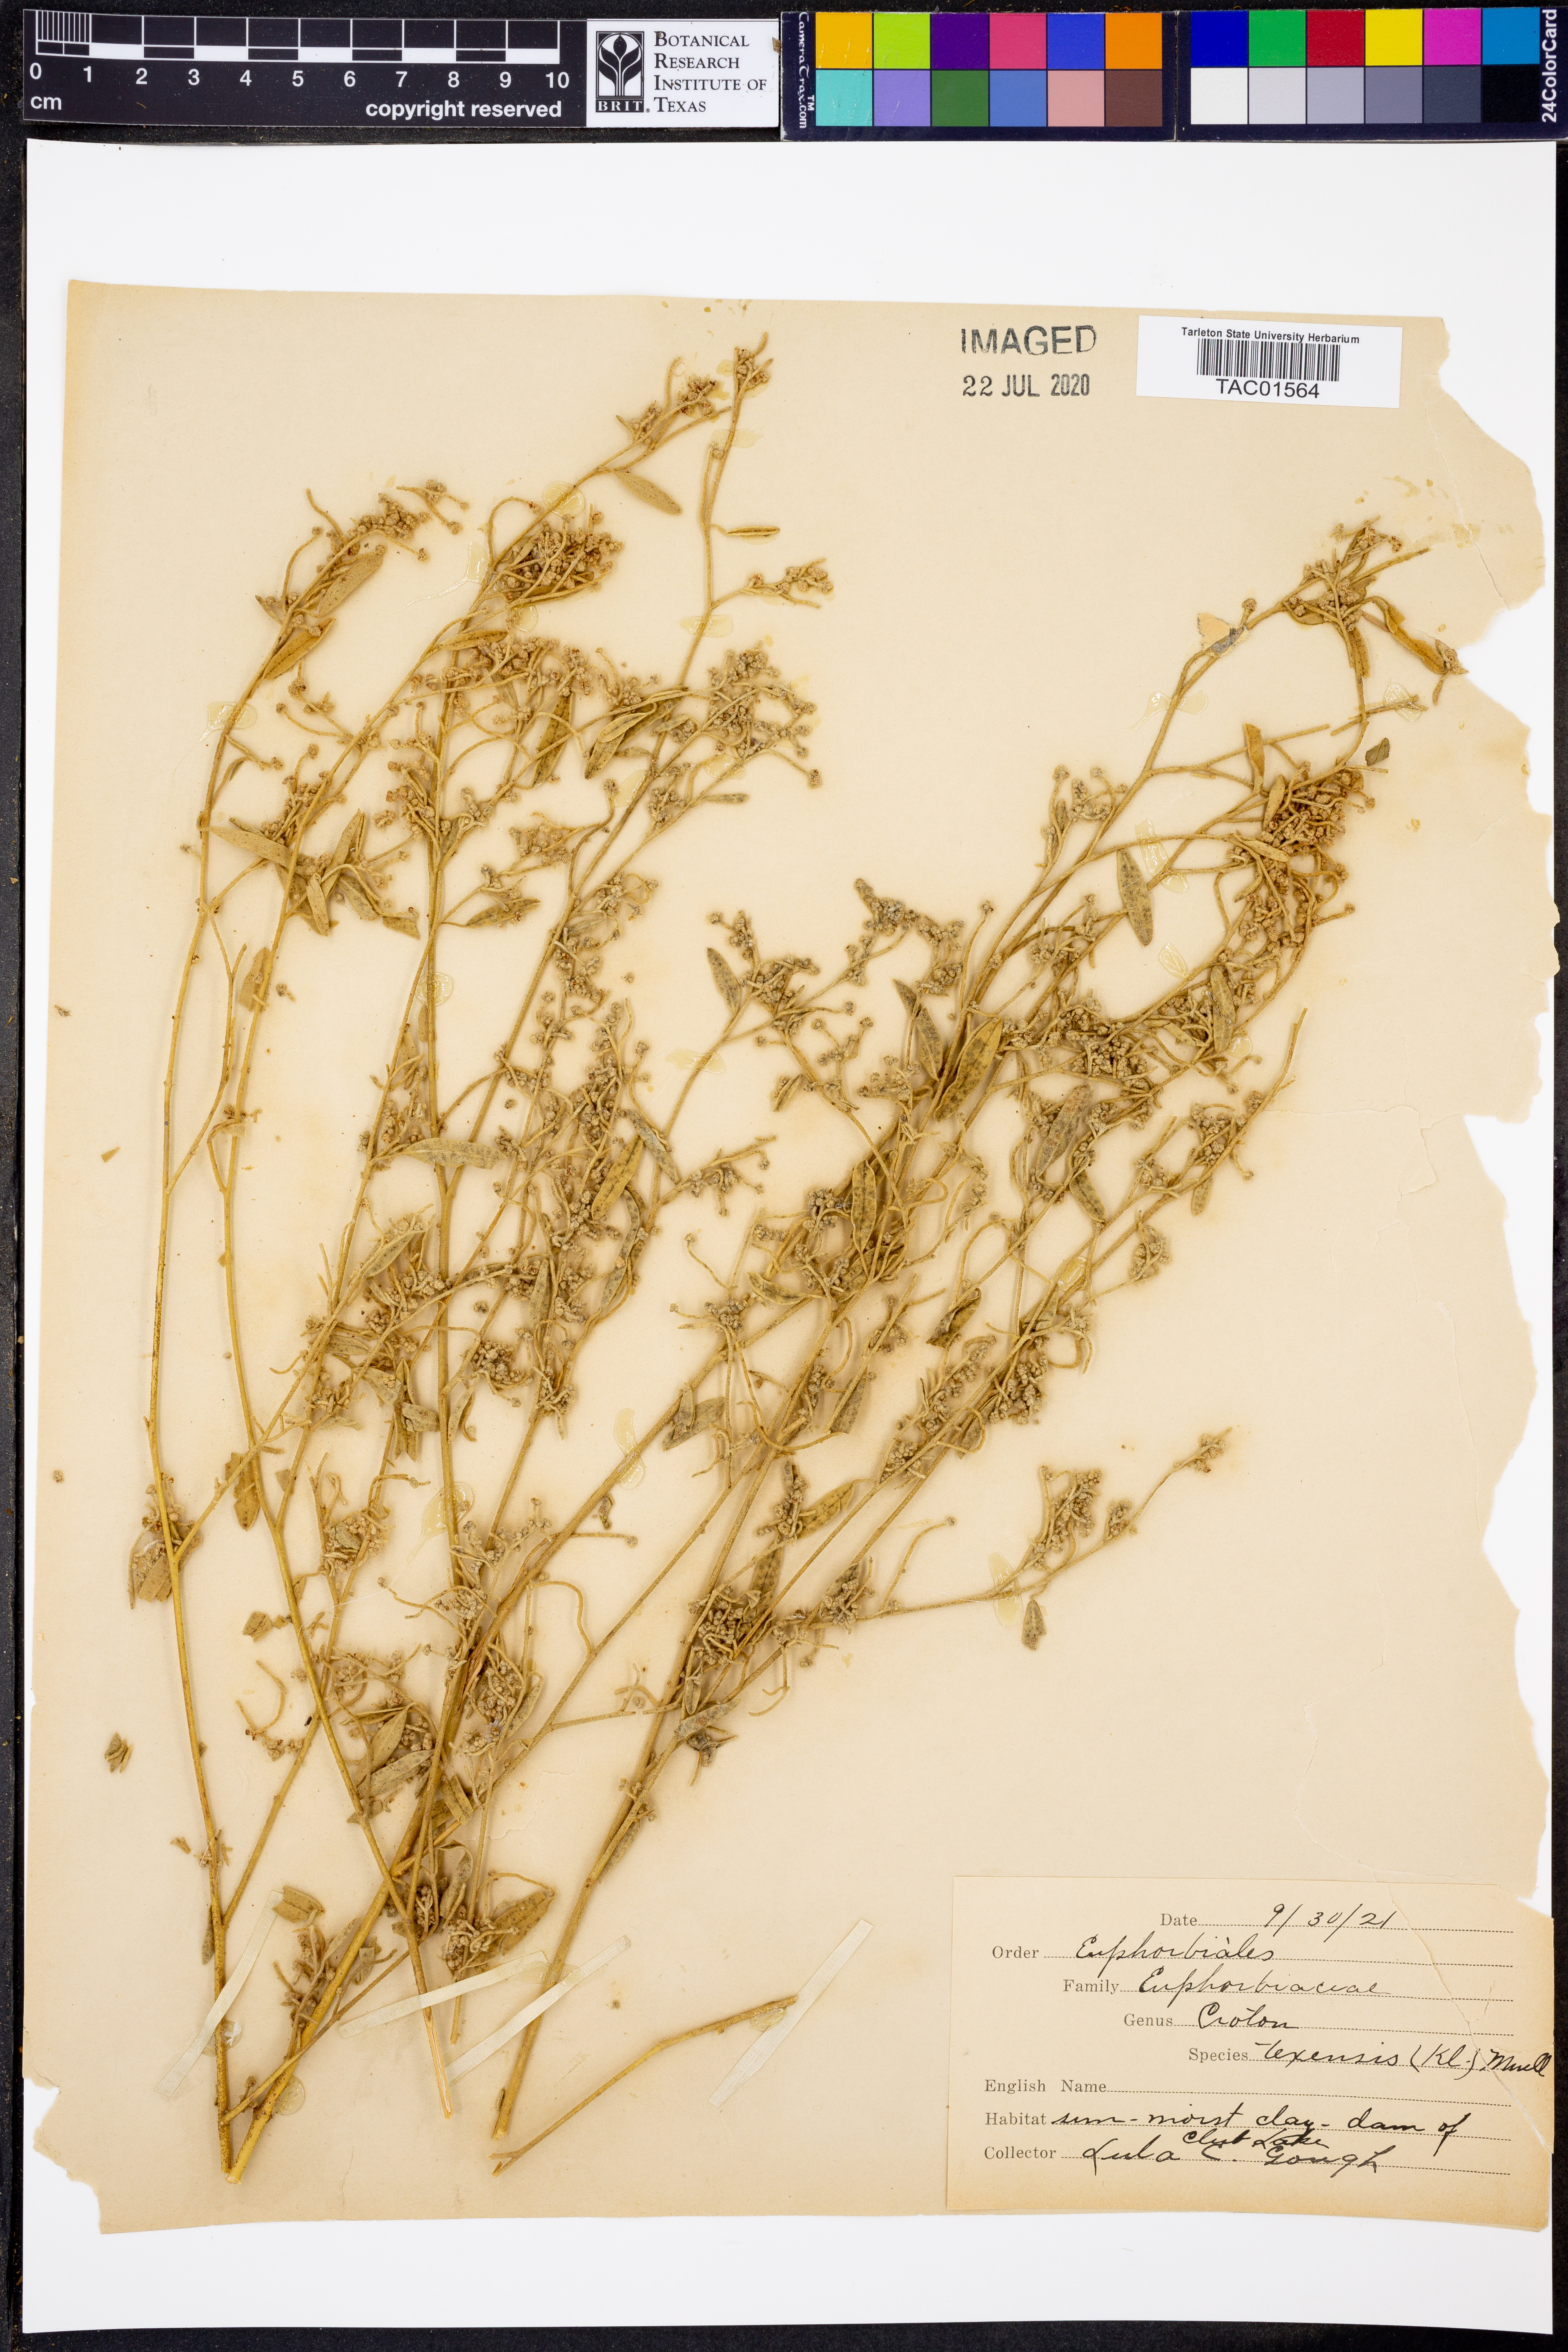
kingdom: Plantae
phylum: Tracheophyta
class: Magnoliopsida
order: Malpighiales
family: Euphorbiaceae
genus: Croton
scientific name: Croton texensis
